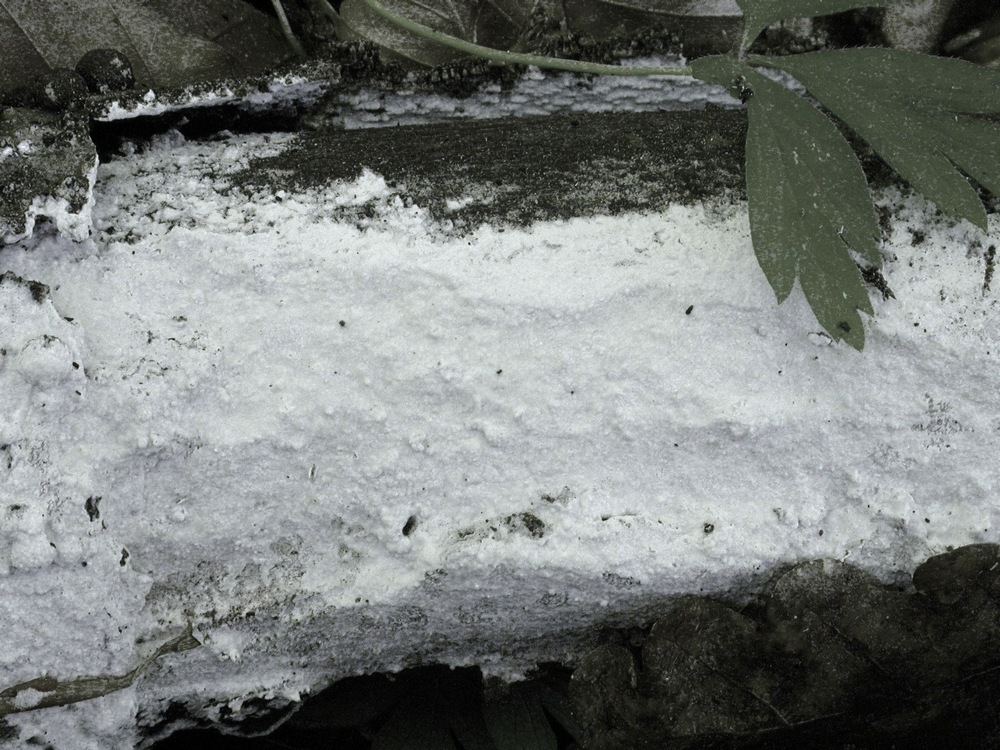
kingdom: Fungi
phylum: Basidiomycota
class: Agaricomycetes
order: Polyporales
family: Phanerochaetaceae
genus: Phanerochaete
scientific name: Phanerochaete velutina
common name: dunet randtråd
